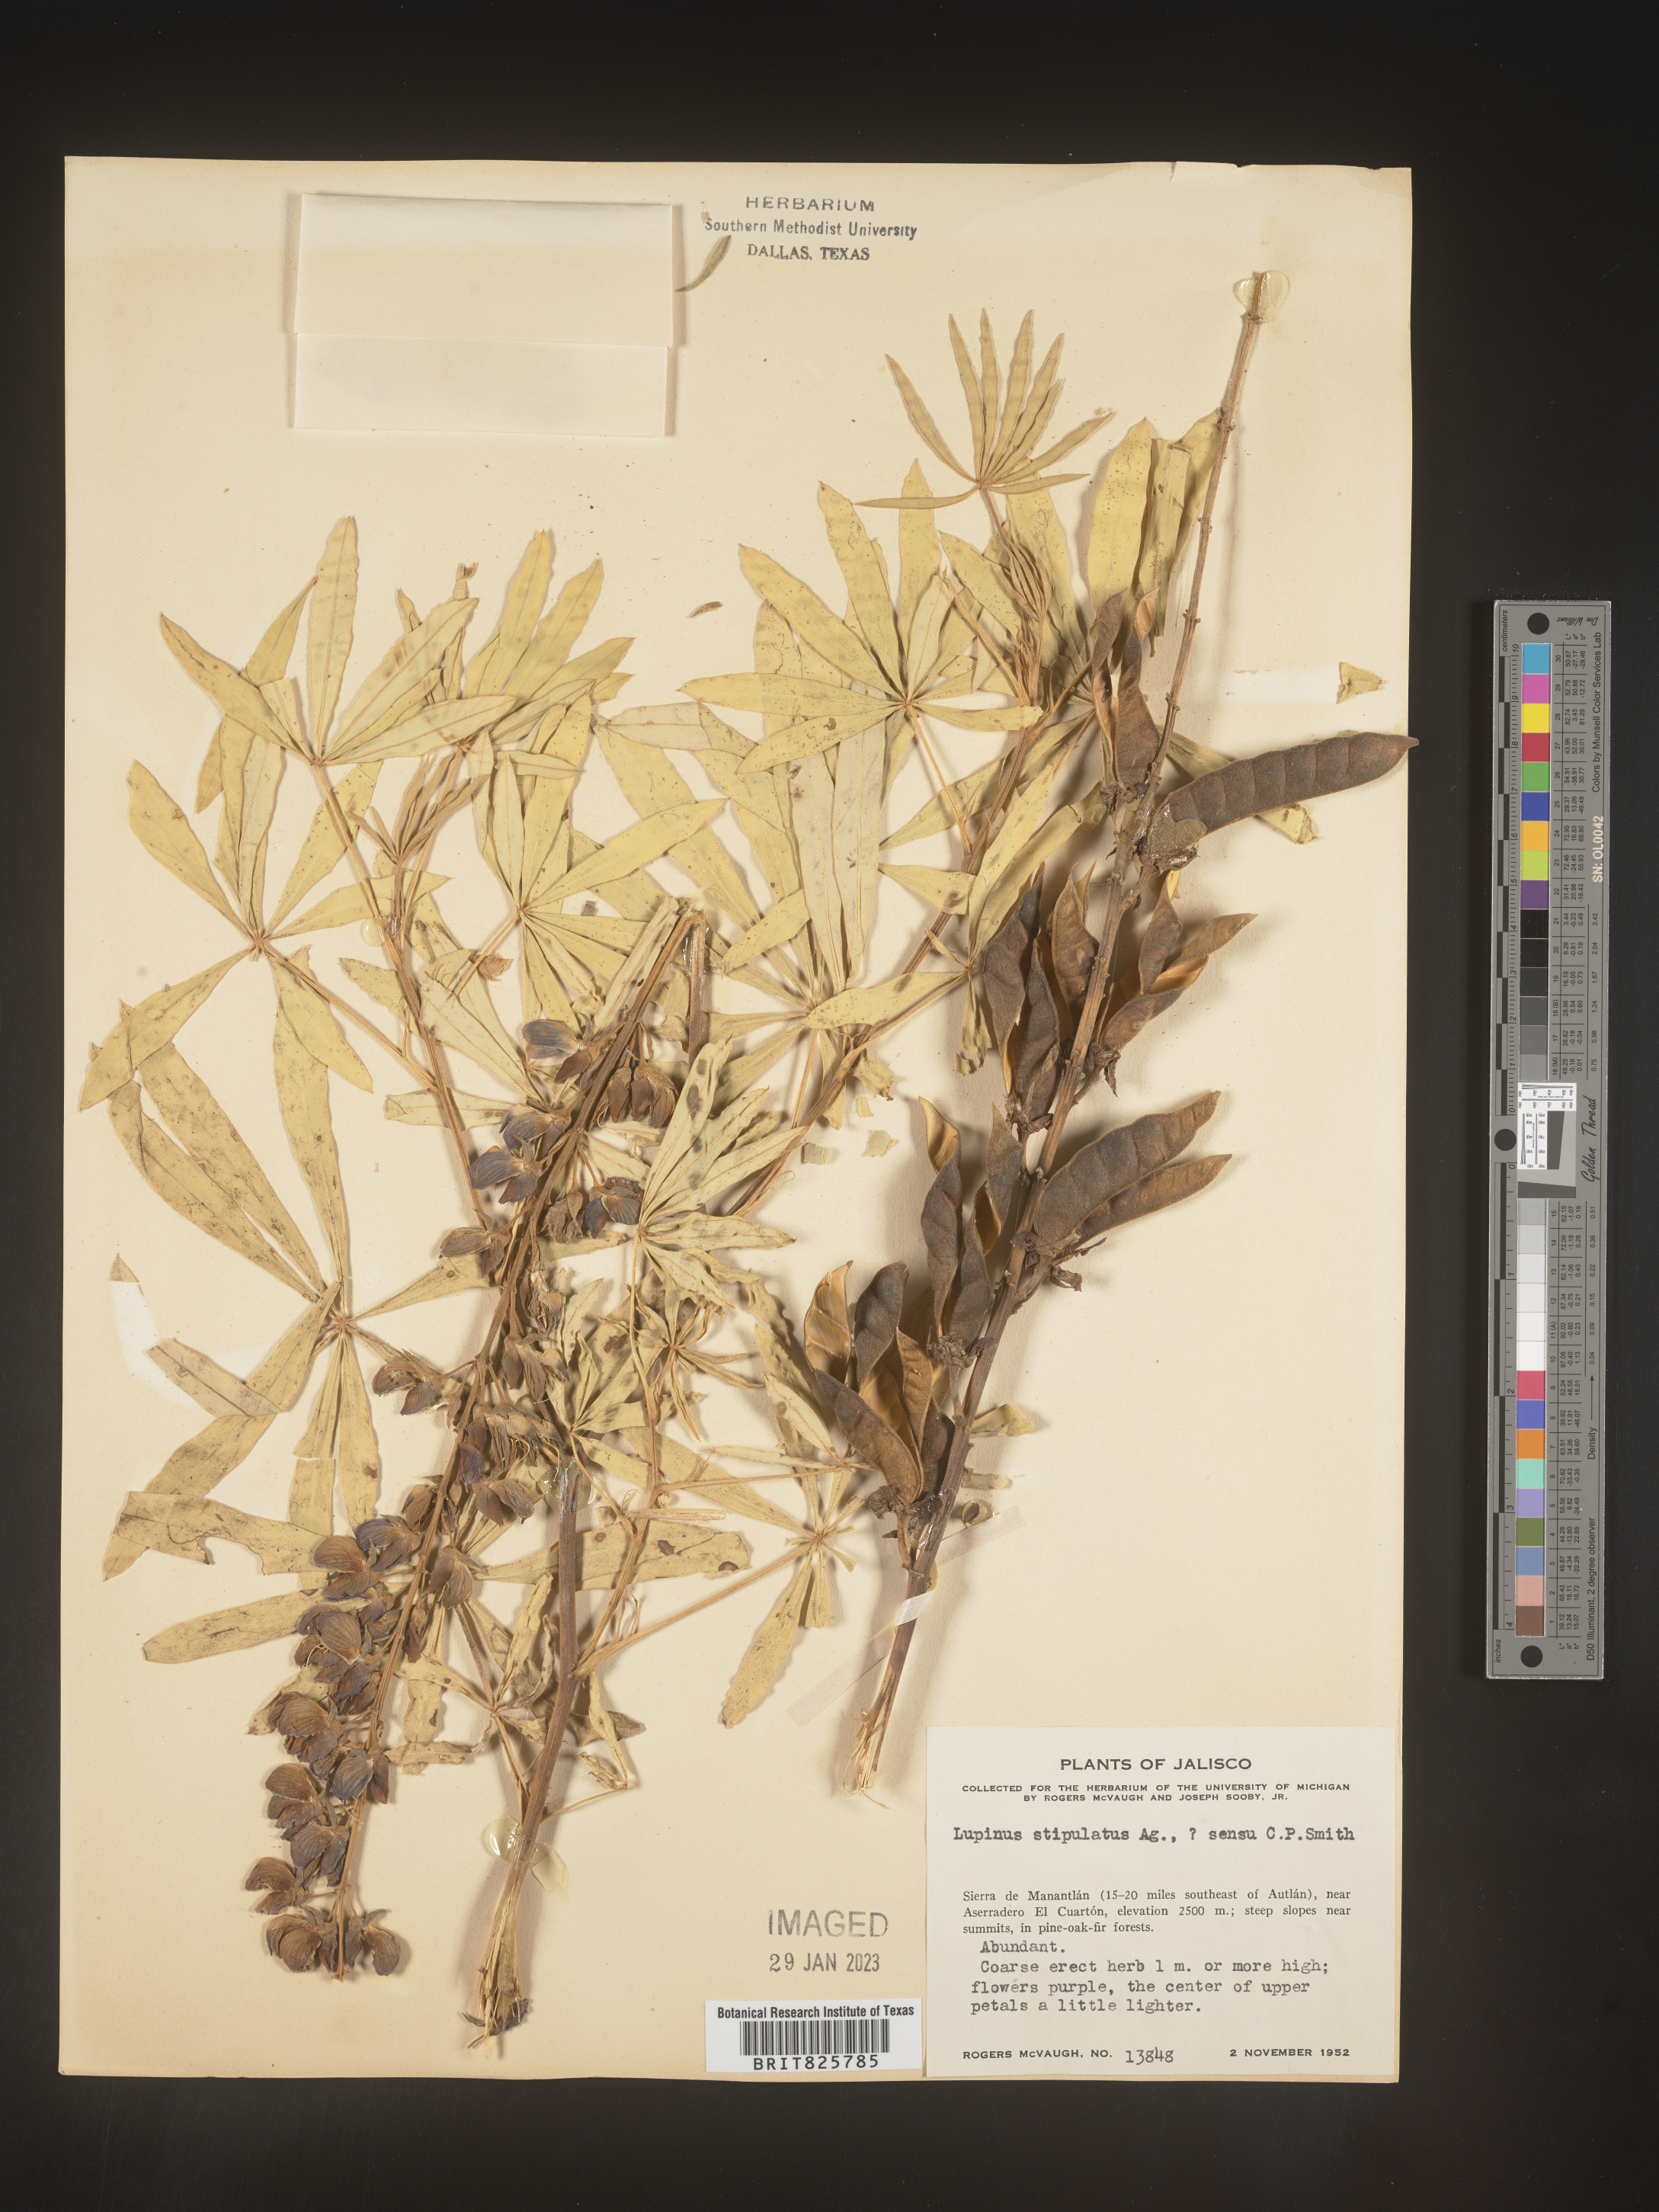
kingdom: Plantae
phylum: Tracheophyta
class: Magnoliopsida
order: Fabales
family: Fabaceae
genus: Lupinus
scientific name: Lupinus
